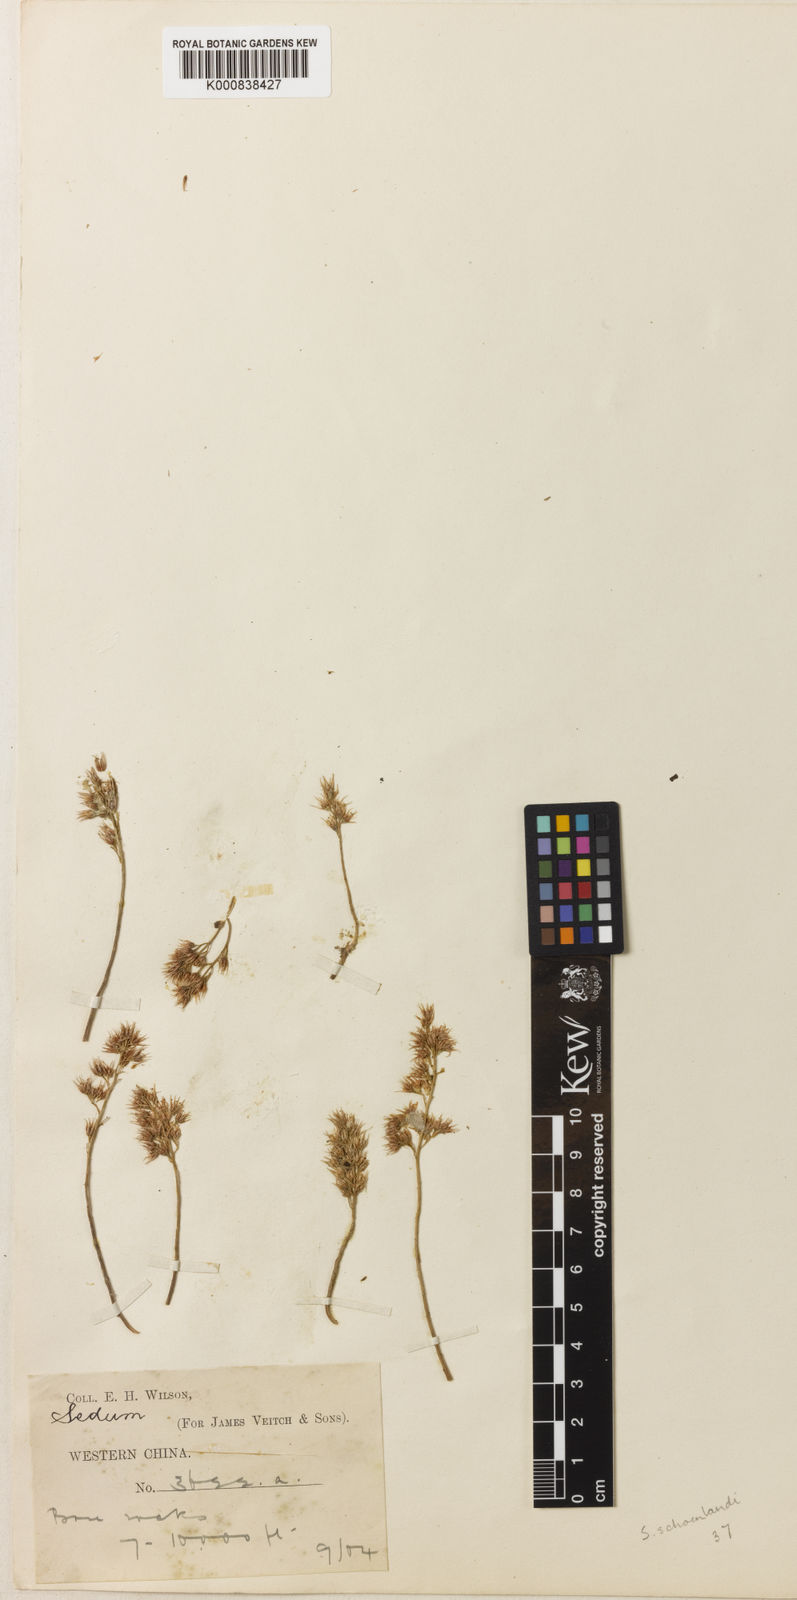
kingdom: Plantae
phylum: Tracheophyta
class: Magnoliopsida
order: Saxifragales
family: Crassulaceae
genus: Orostachys
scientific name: Orostachys schoenlandii
